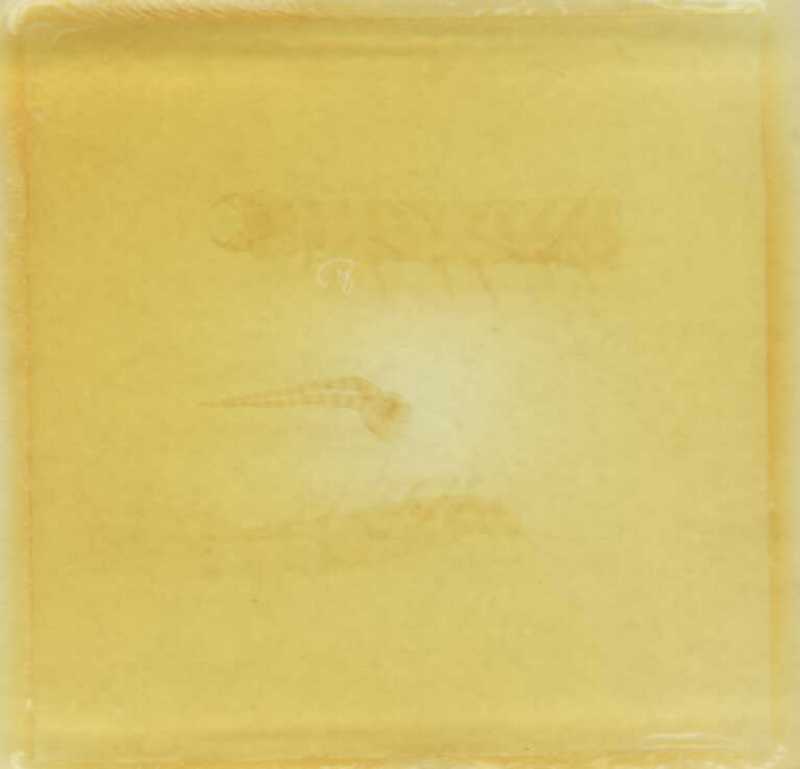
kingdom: Animalia
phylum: Arthropoda
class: Chilopoda
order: Geophilomorpha
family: Geophilidae
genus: Clinopodes
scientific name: Clinopodes flavidus
